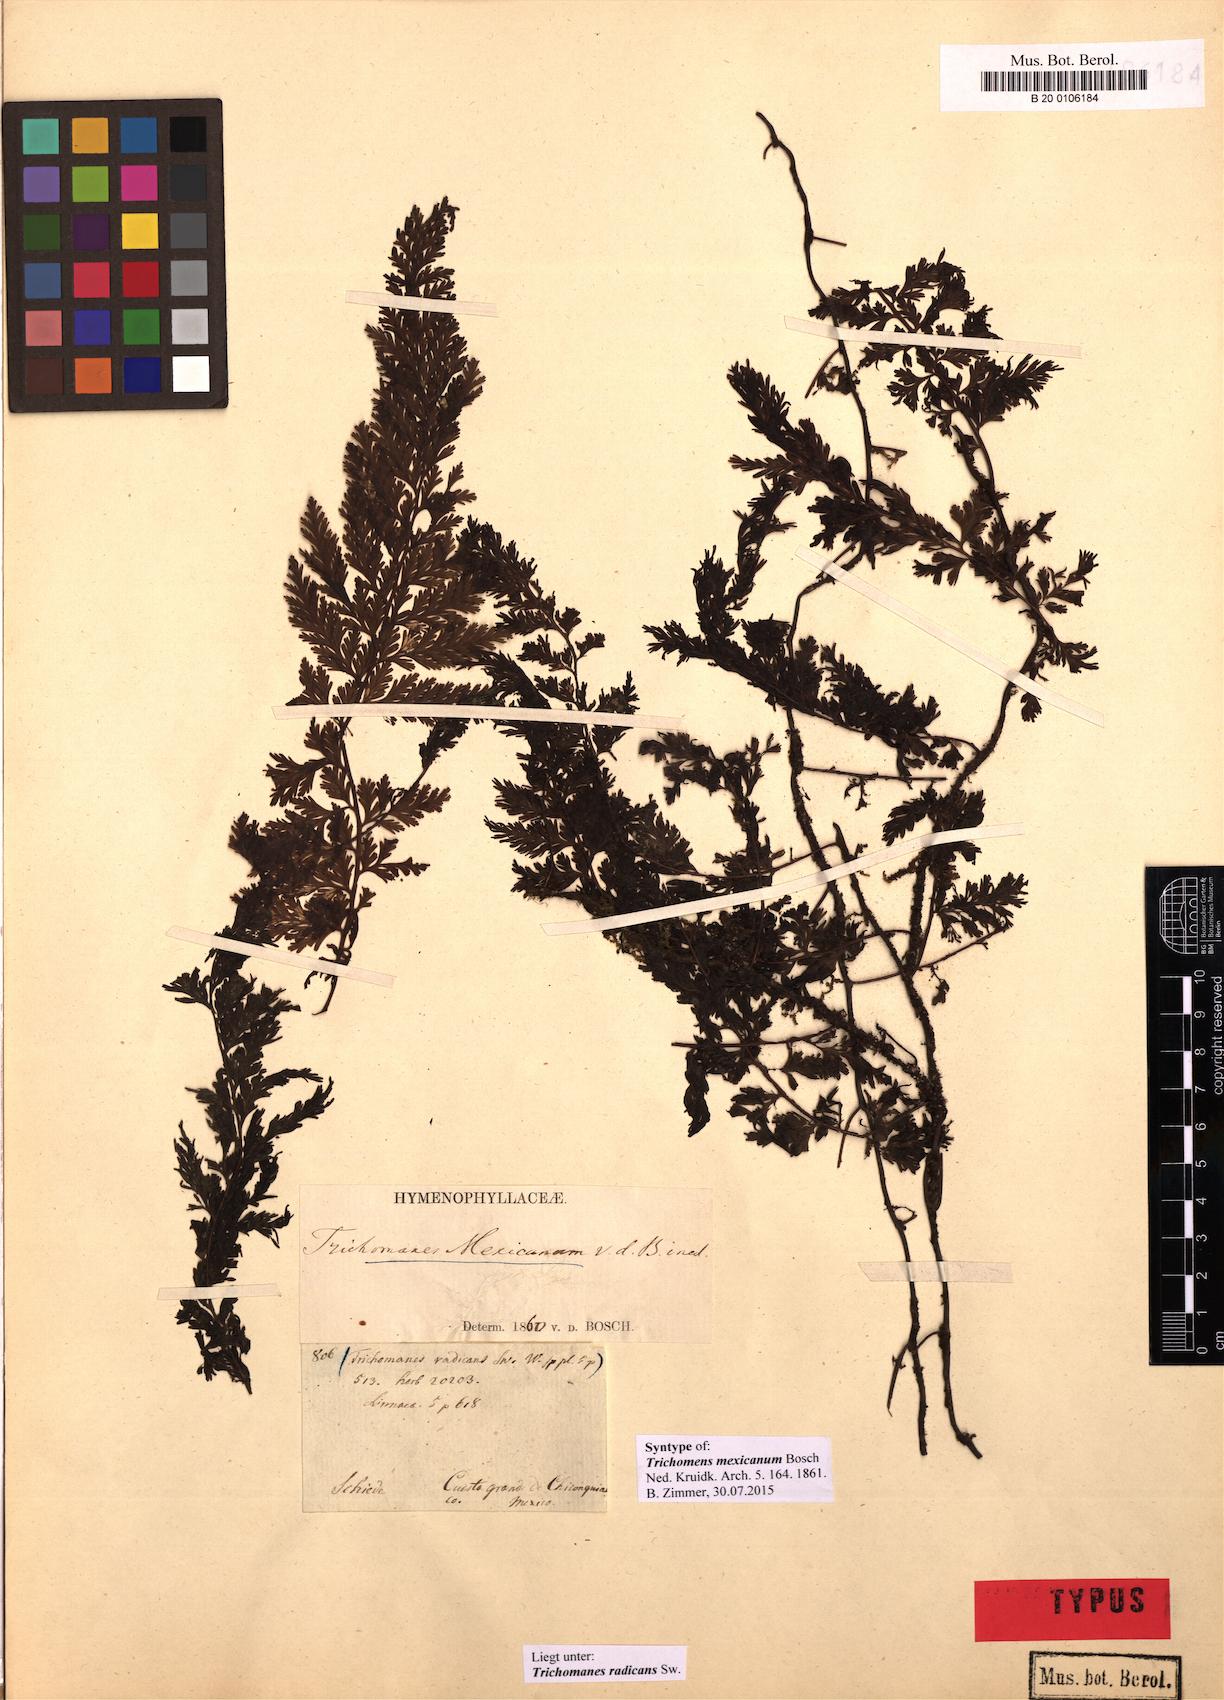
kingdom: Plantae
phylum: Tracheophyta
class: Polypodiopsida
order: Hymenophyllales
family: Hymenophyllaceae
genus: Vandenboschia
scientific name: Vandenboschia radicans
